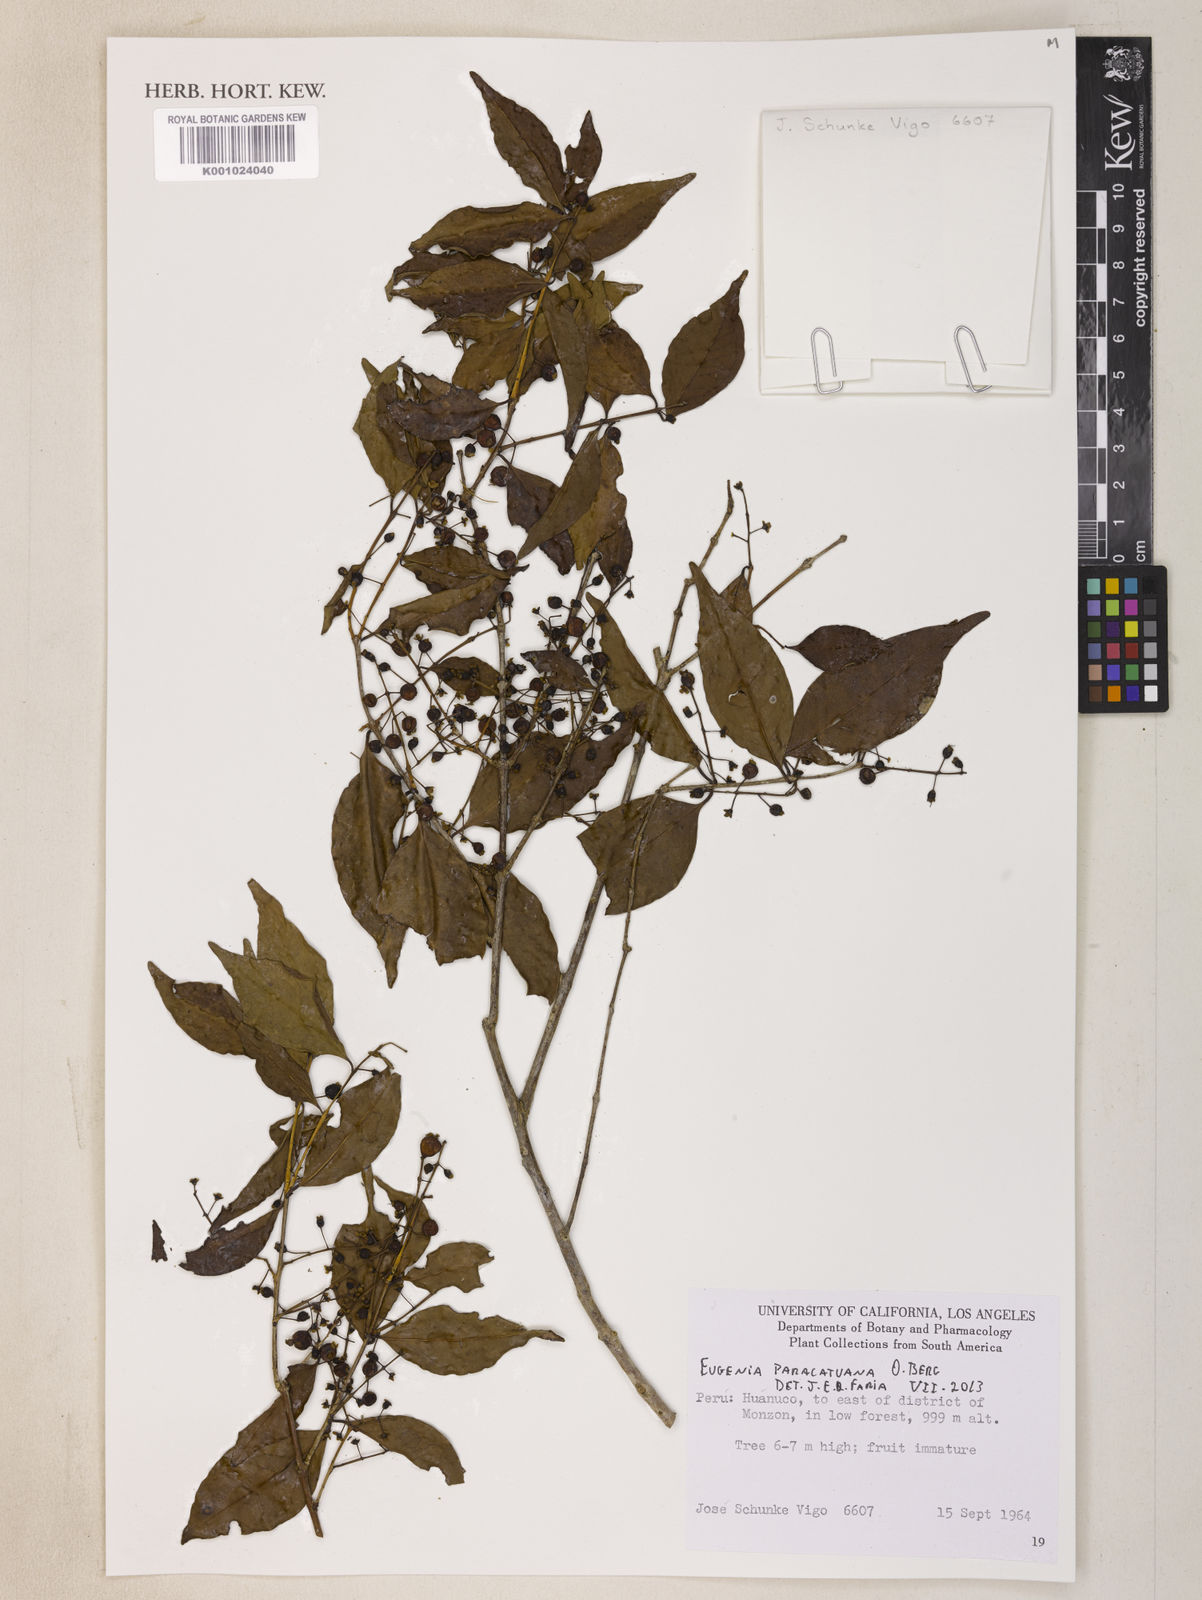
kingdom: Plantae
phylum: Tracheophyta
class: Magnoliopsida
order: Myrtales
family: Myrtaceae
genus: Eugenia
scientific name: Eugenia moraviana
